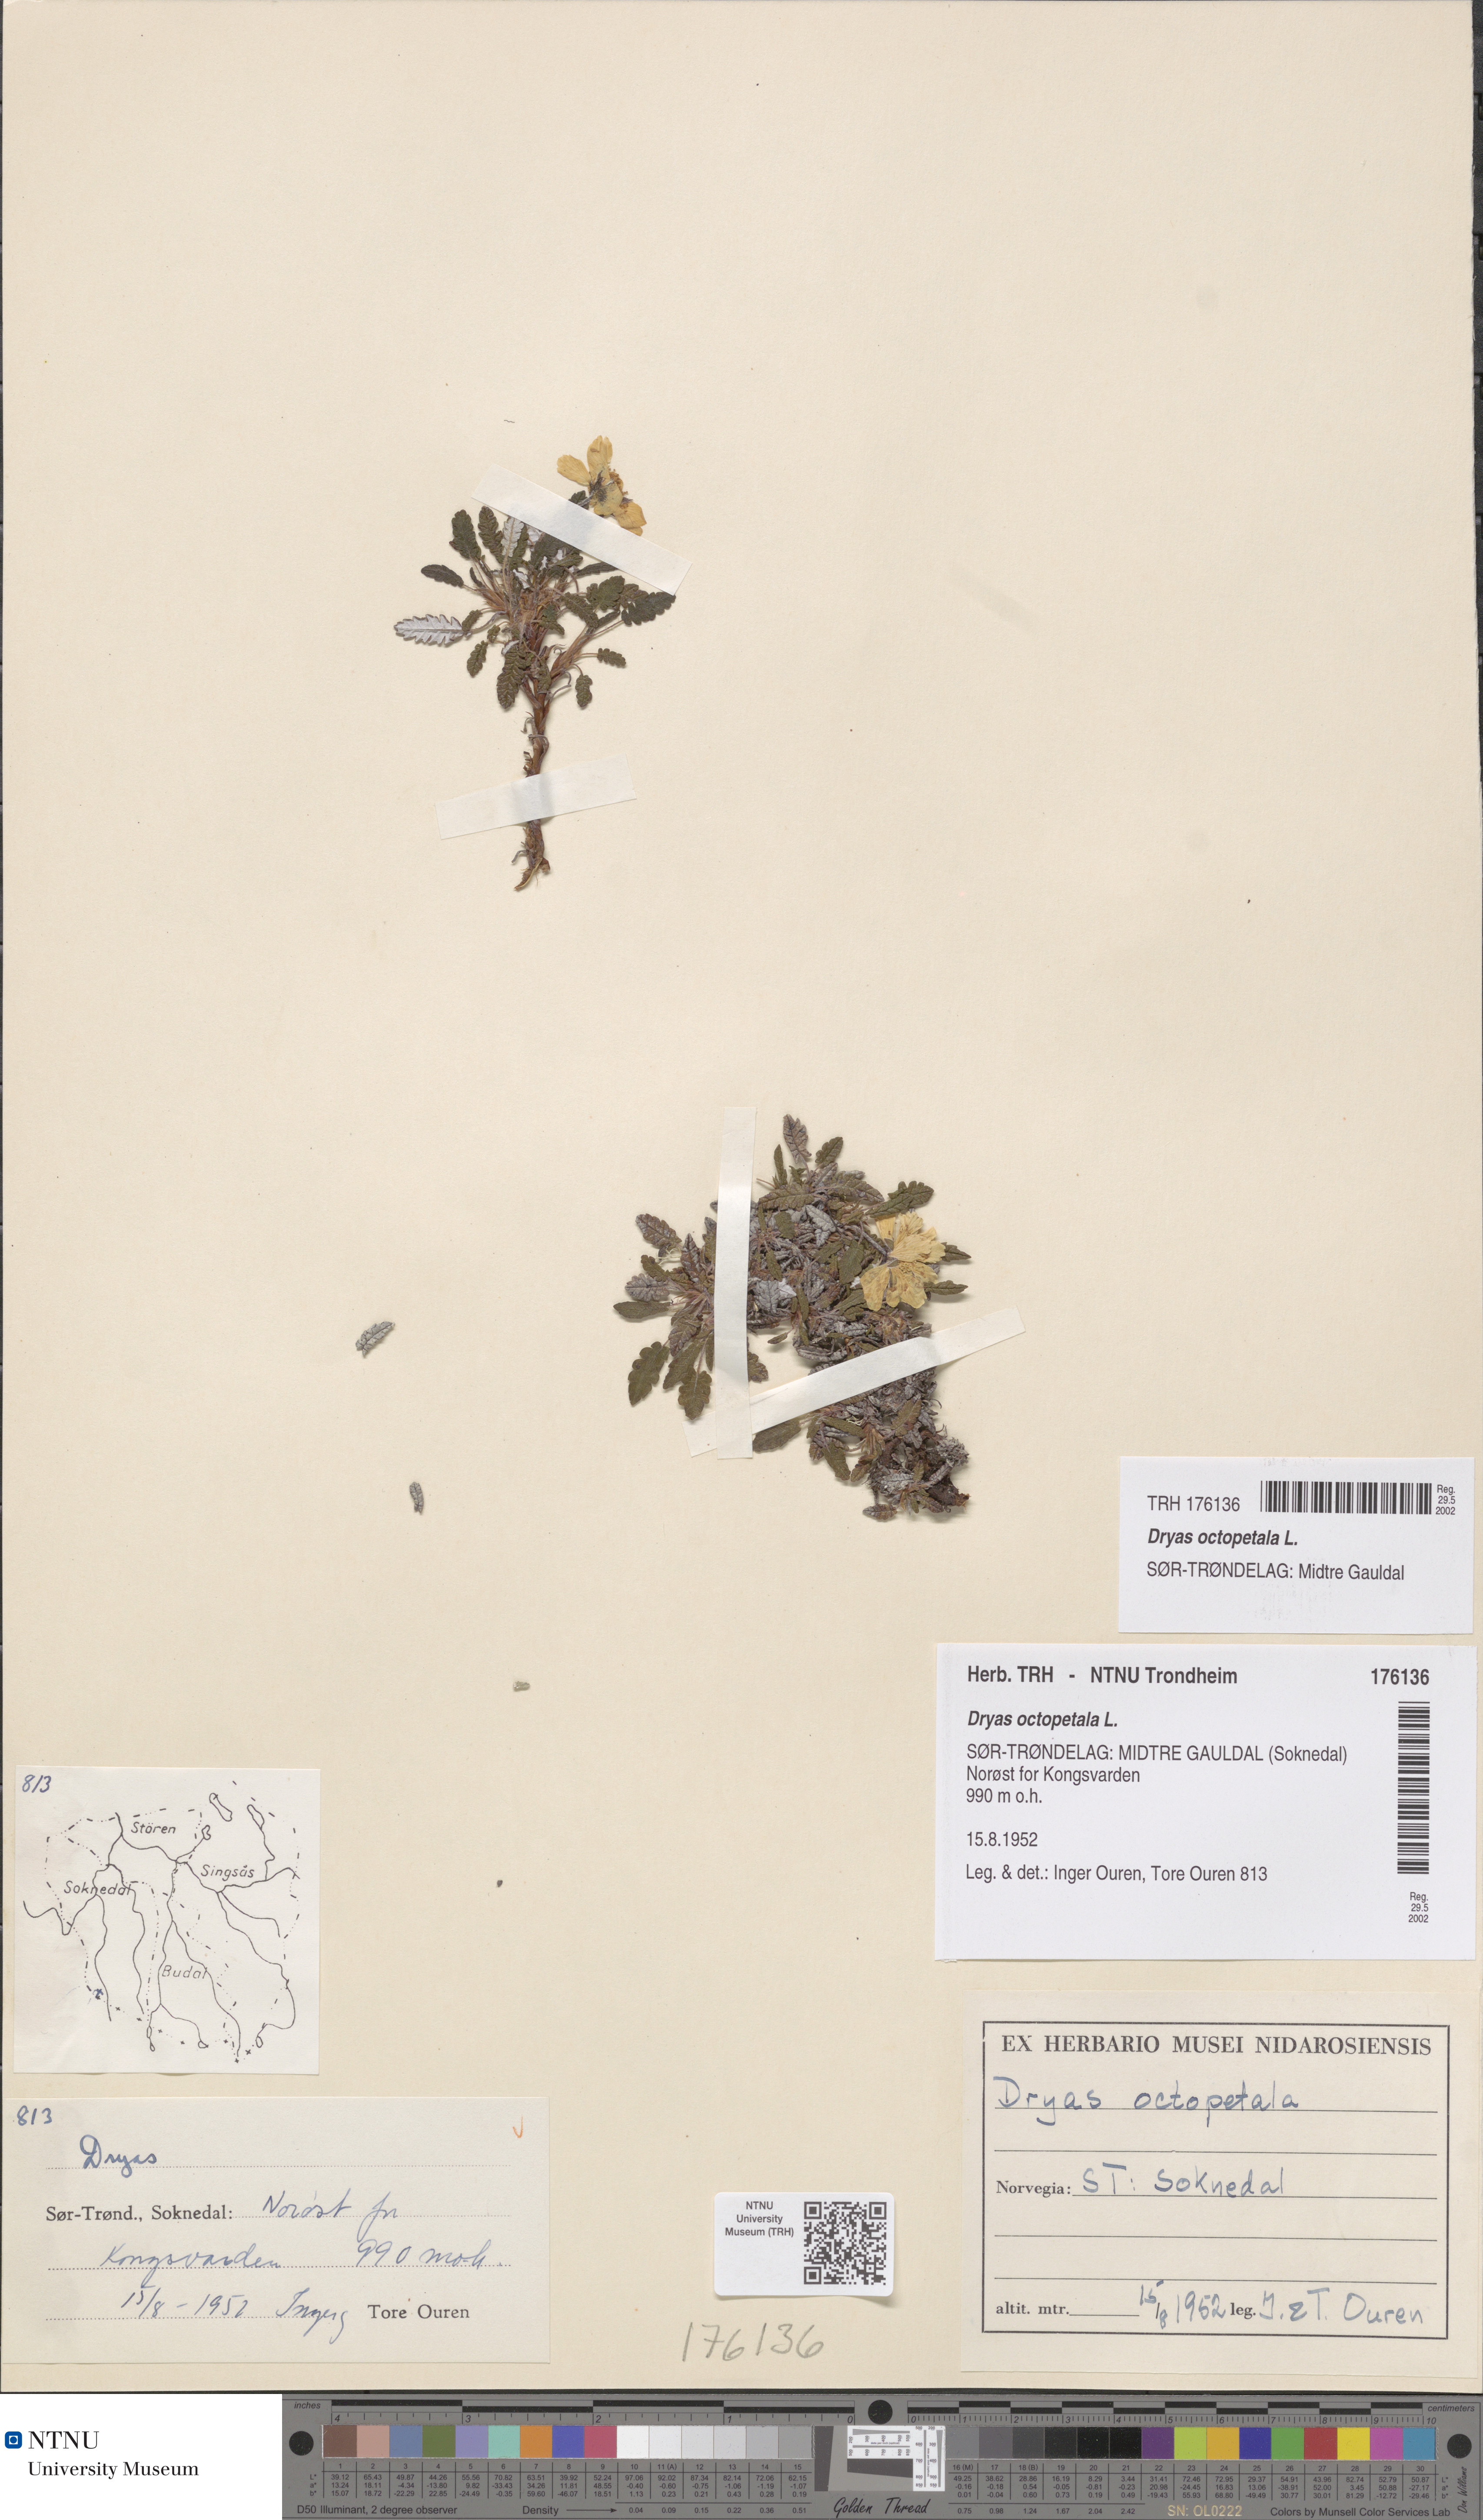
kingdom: Plantae
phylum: Tracheophyta
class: Magnoliopsida
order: Rosales
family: Rosaceae
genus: Dryas
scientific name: Dryas octopetala
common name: Eight-petal mountain-avens
